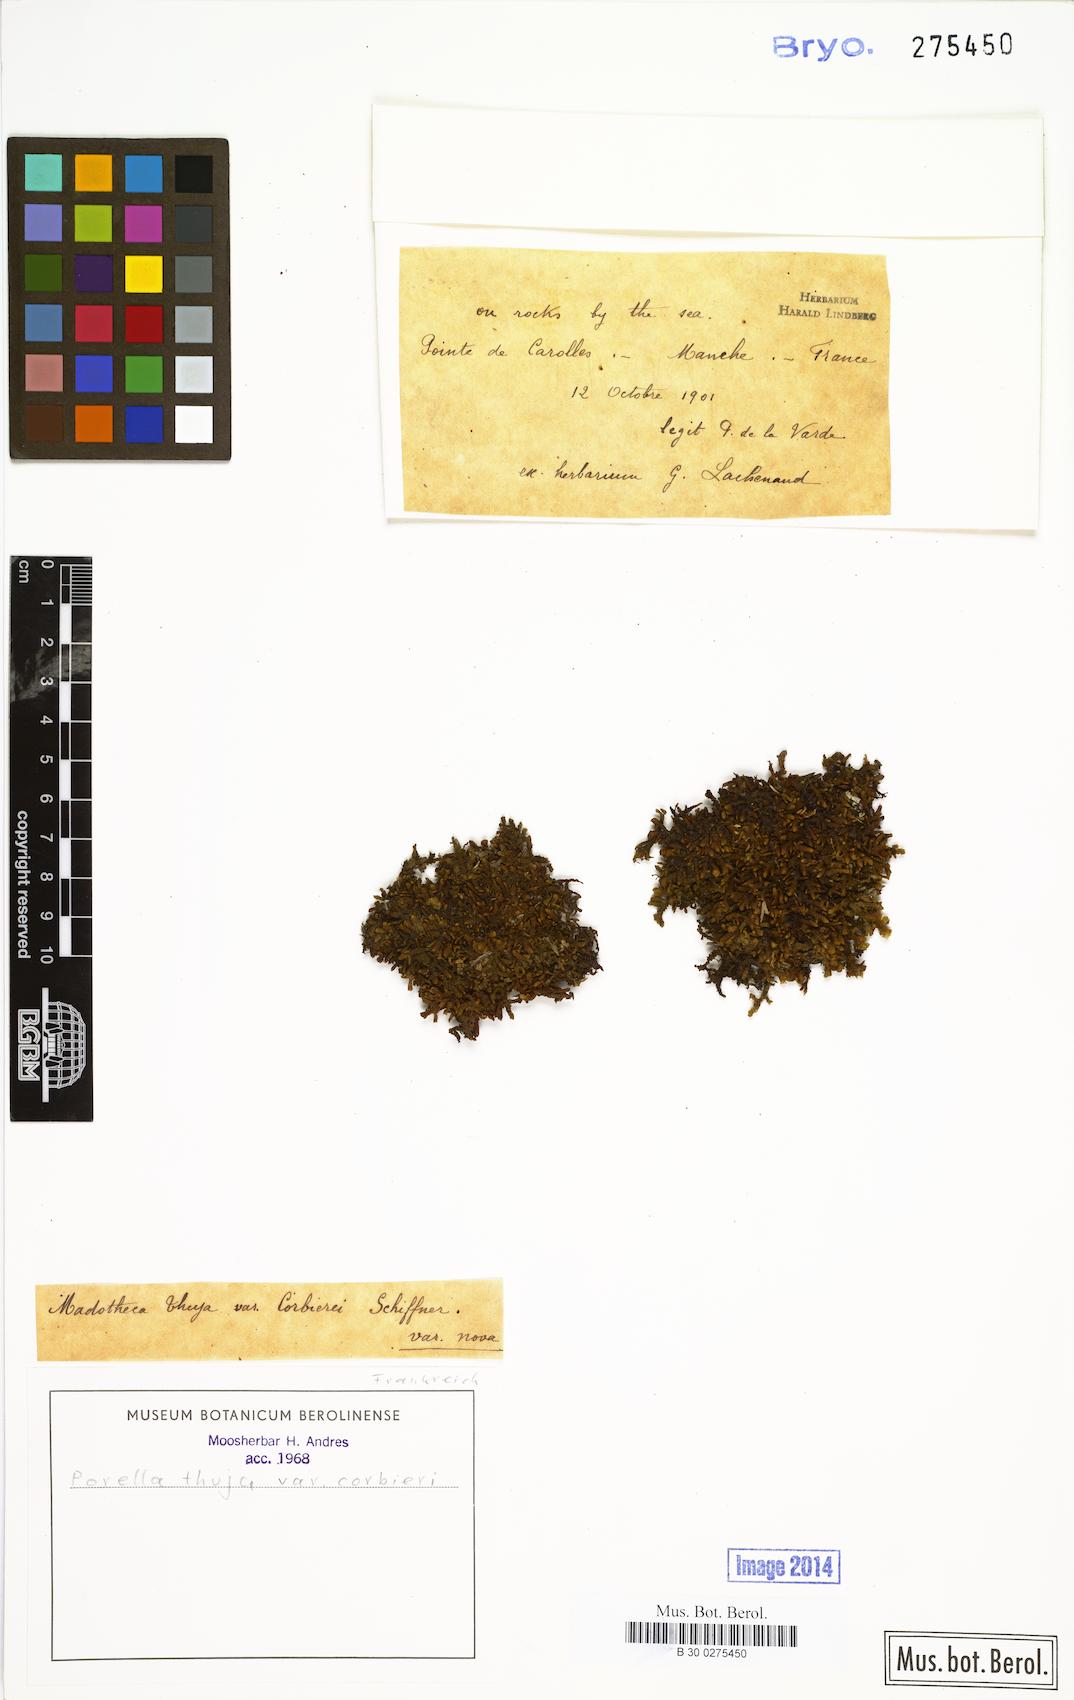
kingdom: Plantae
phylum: Marchantiophyta
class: Jungermanniopsida
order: Porellales
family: Porellaceae
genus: Porella
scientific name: Porella arboris-vitae
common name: Bitter scalewort
